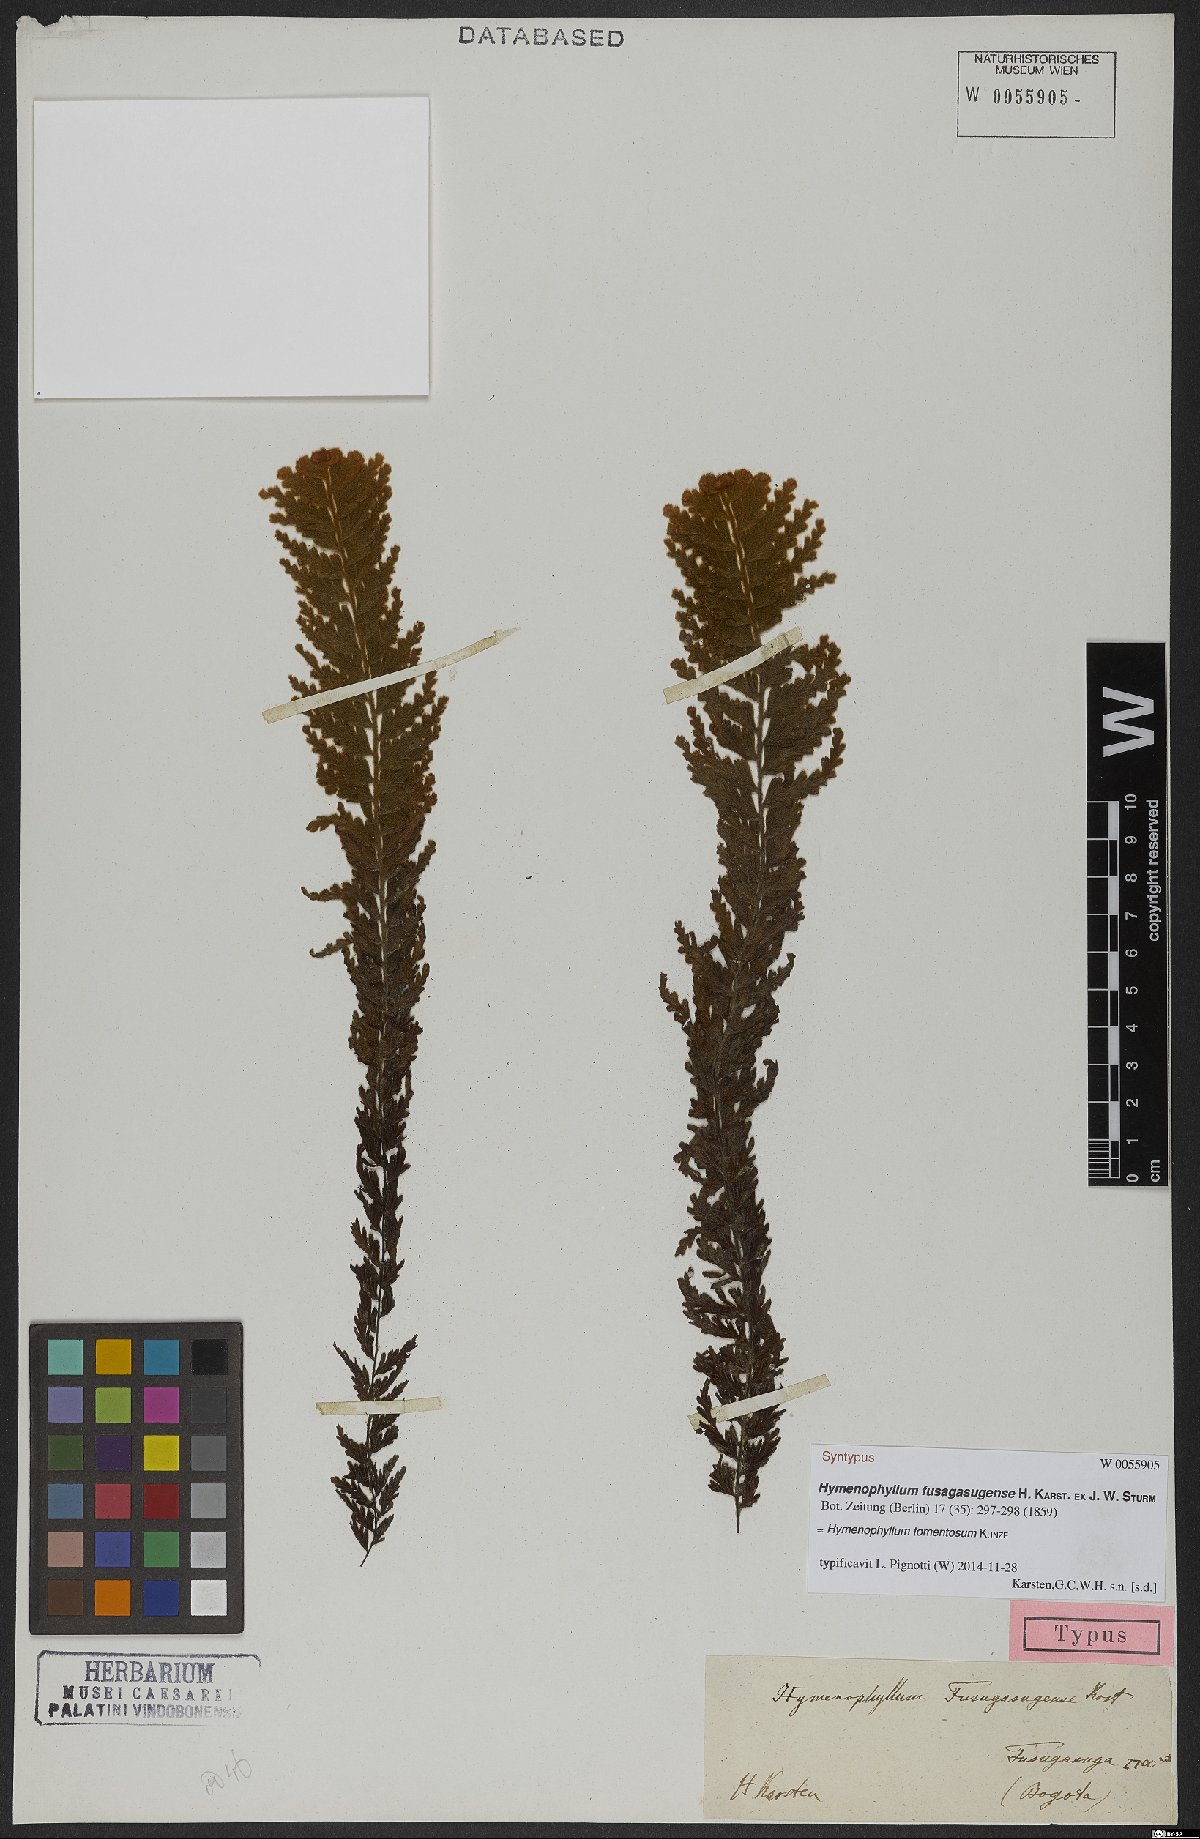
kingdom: Plantae
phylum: Tracheophyta
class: Polypodiopsida
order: Hymenophyllales
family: Hymenophyllaceae
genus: Hymenophyllum
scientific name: Hymenophyllum tomentosum
